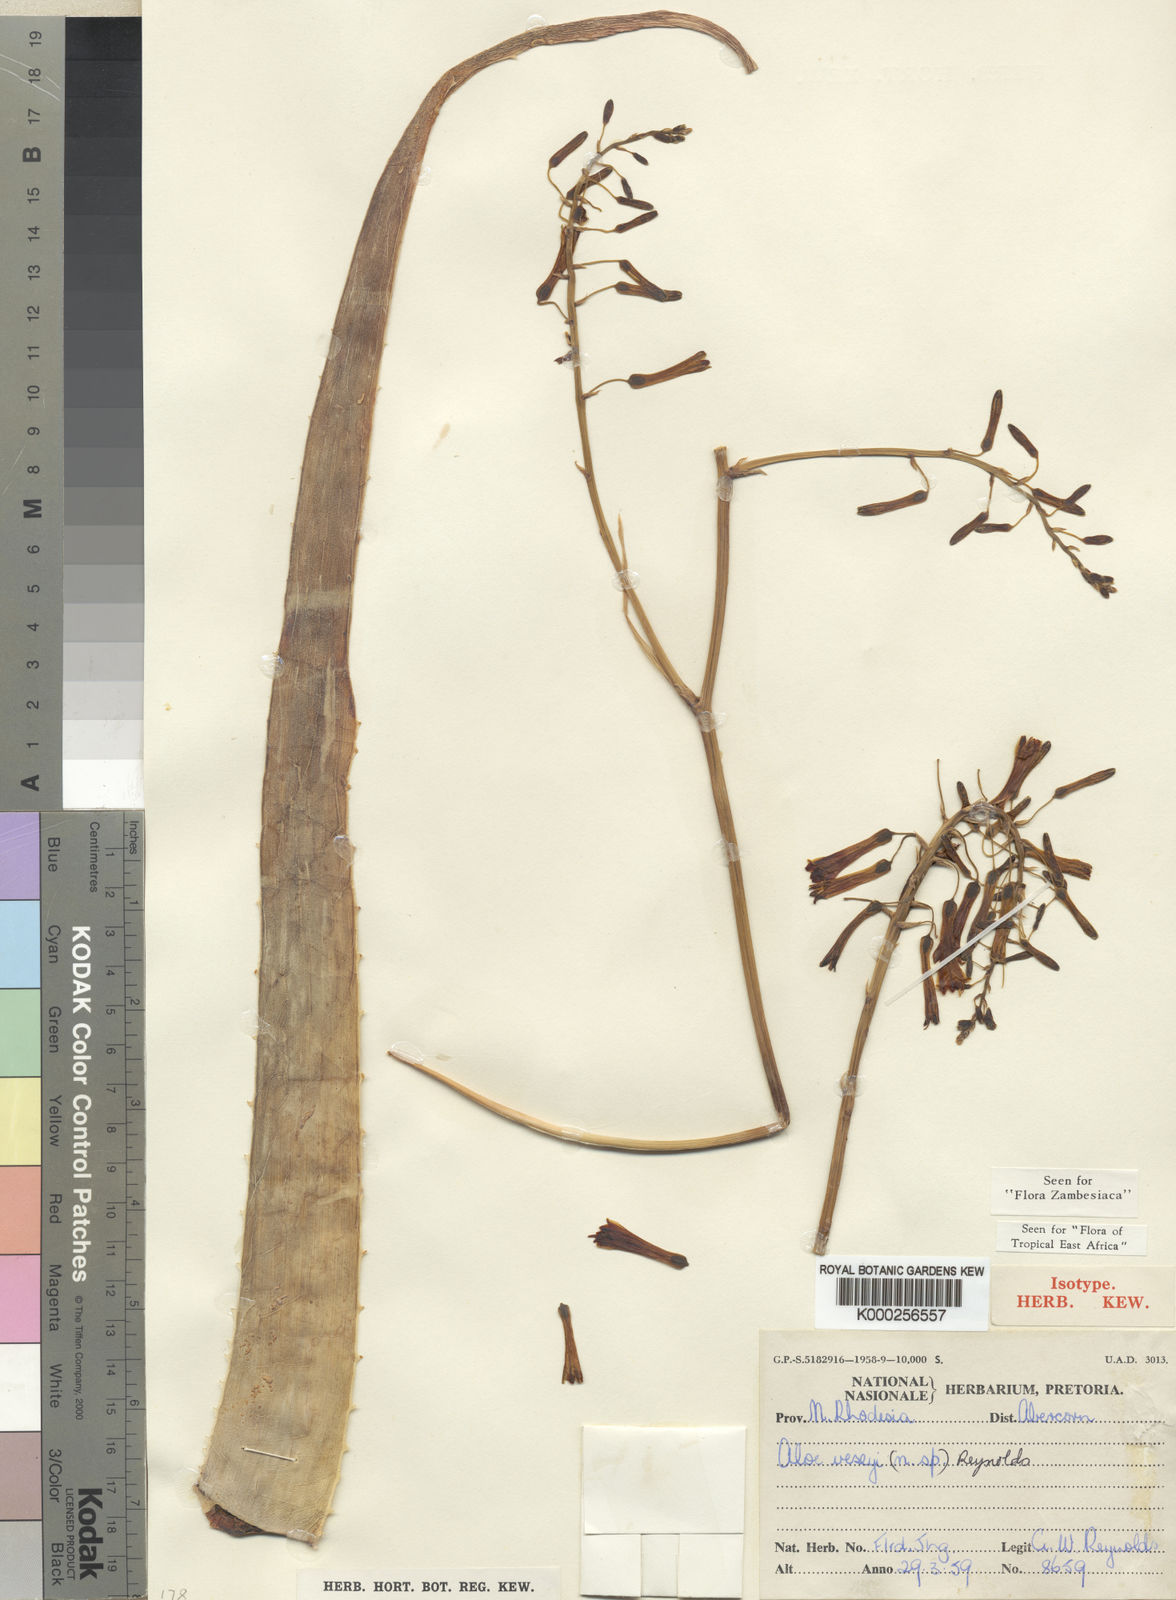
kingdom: Plantae
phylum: Tracheophyta
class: Liliopsida
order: Asparagales
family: Asphodelaceae
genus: Aloe
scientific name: Aloe veseyi
